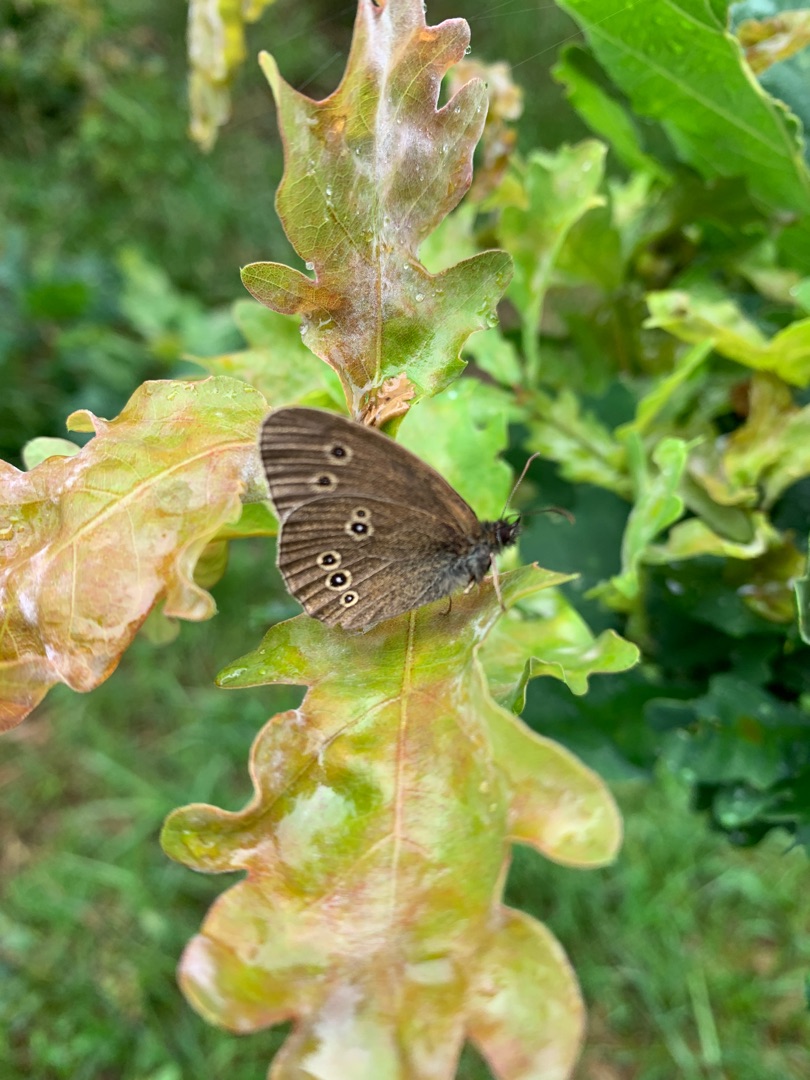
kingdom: Animalia
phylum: Arthropoda
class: Insecta
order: Lepidoptera
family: Nymphalidae
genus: Aphantopus
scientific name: Aphantopus hyperantus
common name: Engrandøje
